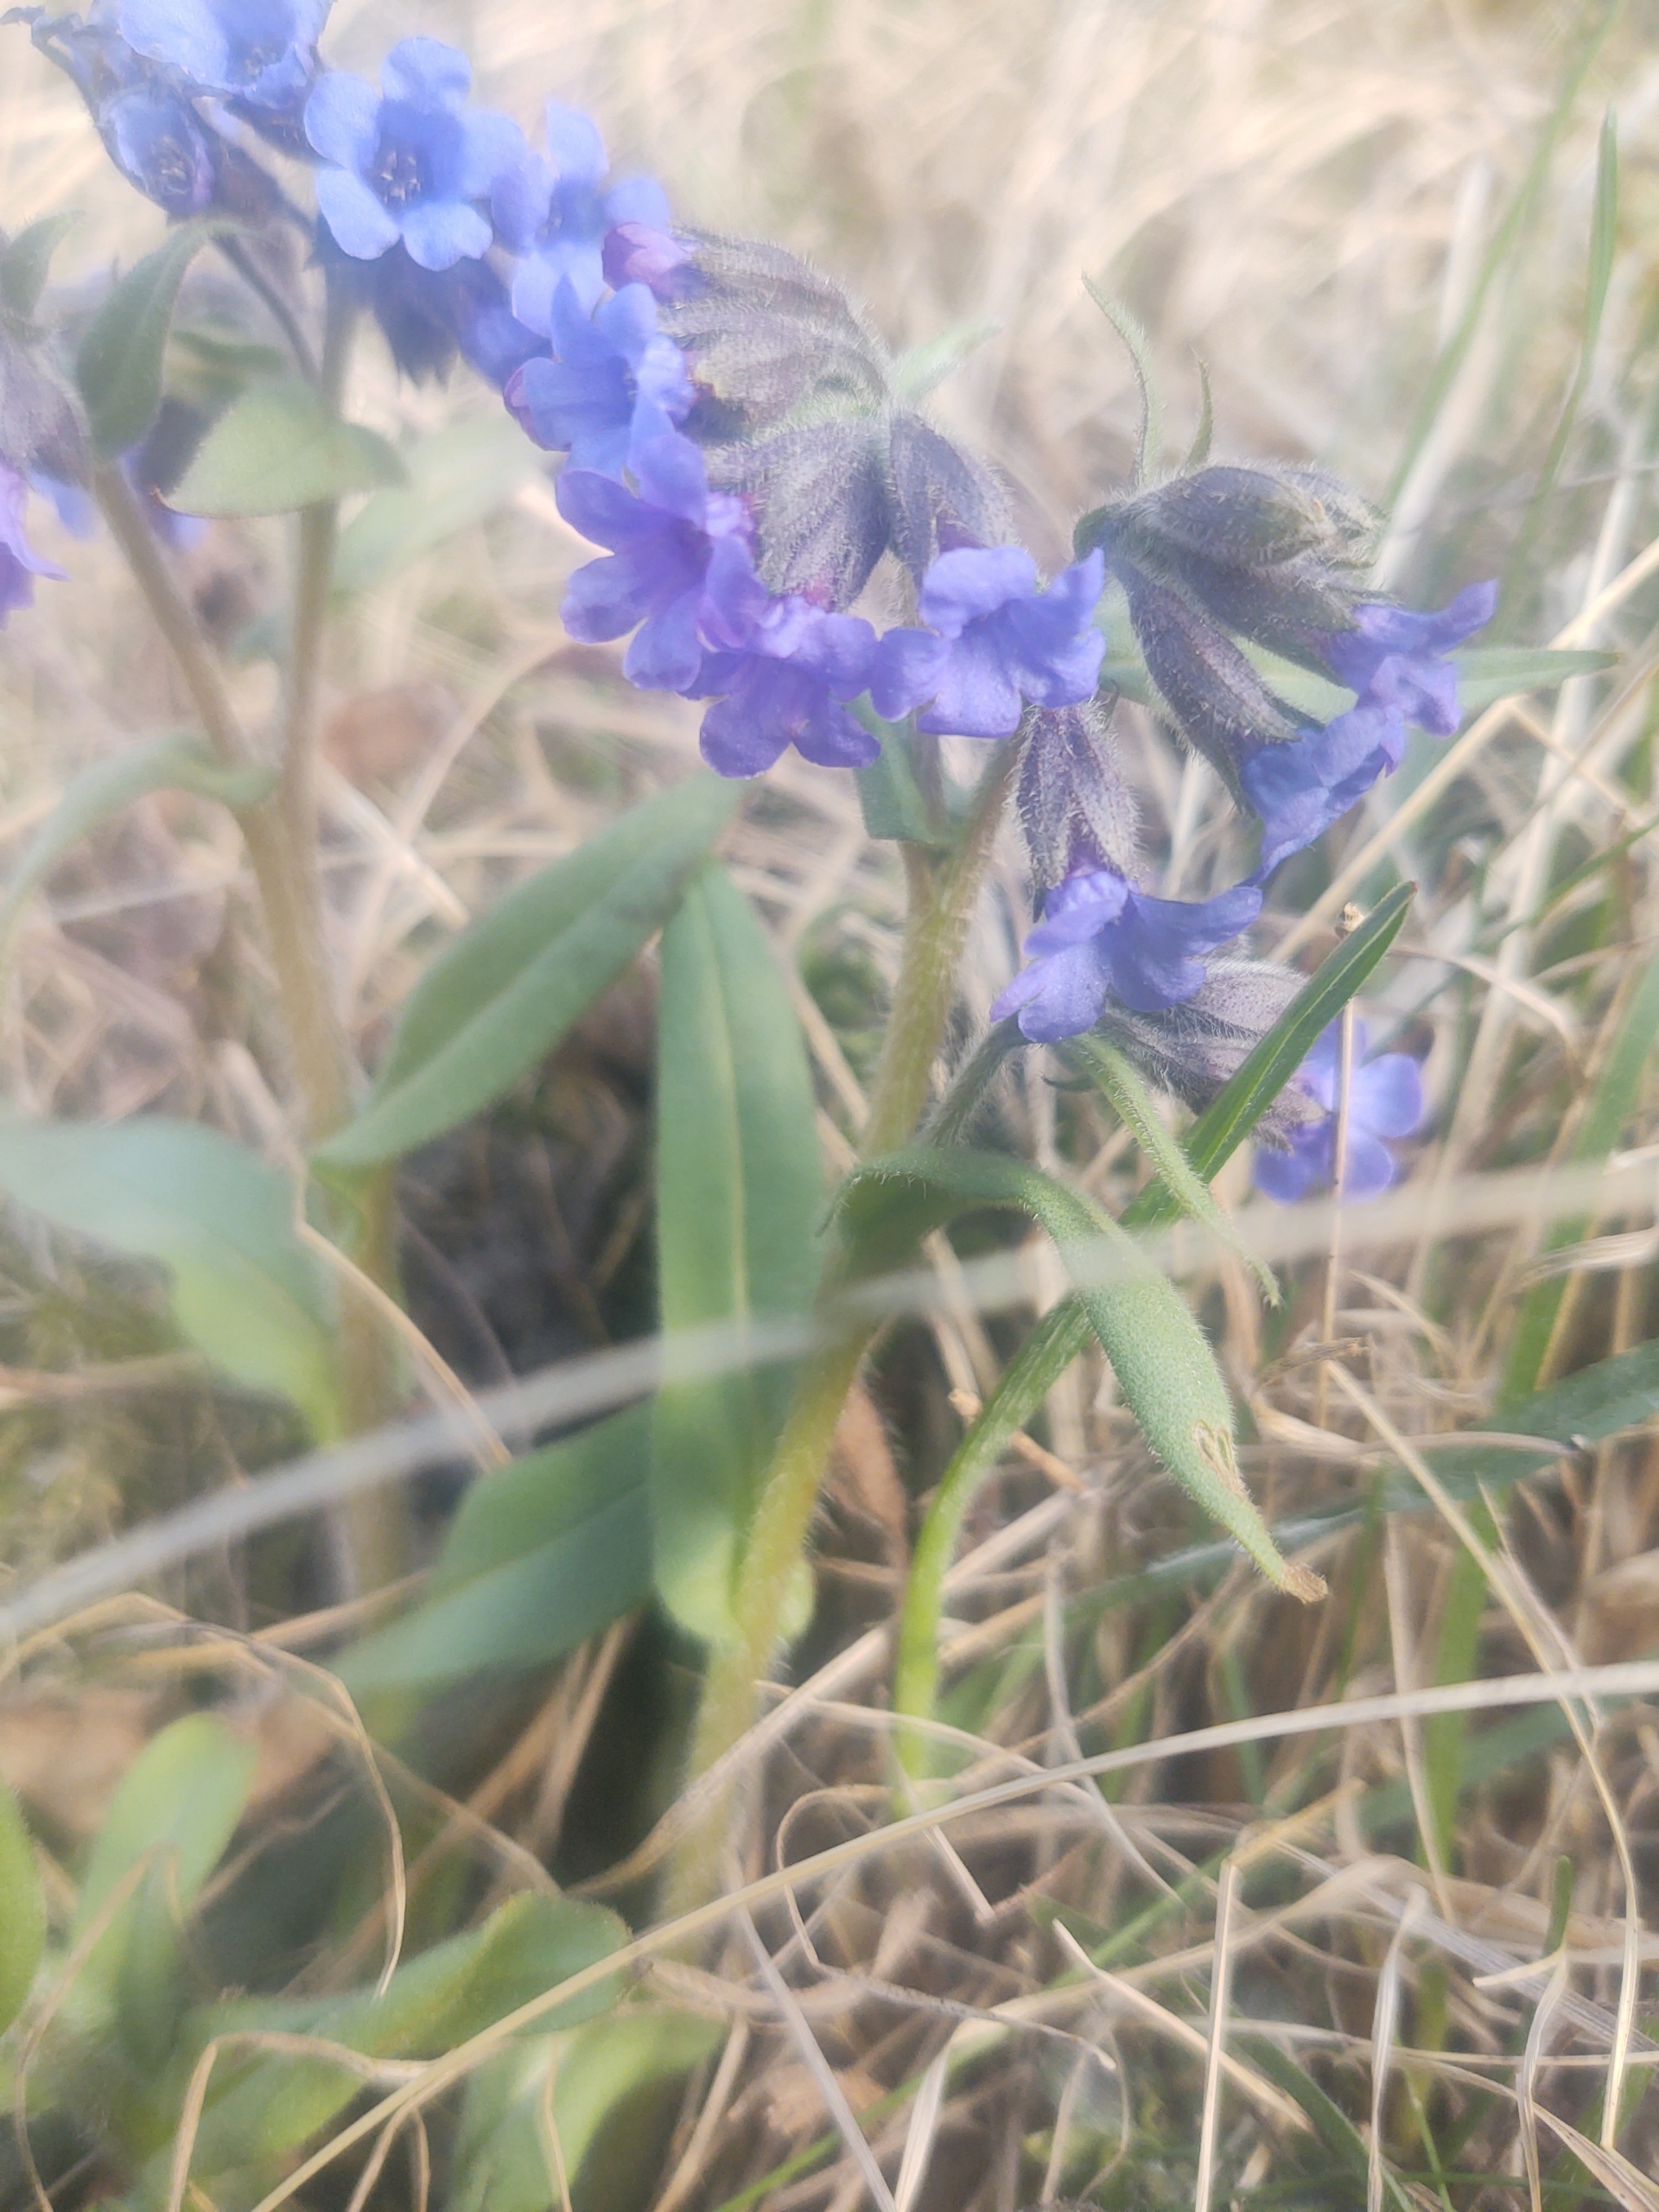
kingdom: Plantae
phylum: Tracheophyta
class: Magnoliopsida
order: Boraginales
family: Boraginaceae
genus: Pulmonaria
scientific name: Pulmonaria angustifolia
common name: Himmelblå lungeurt
